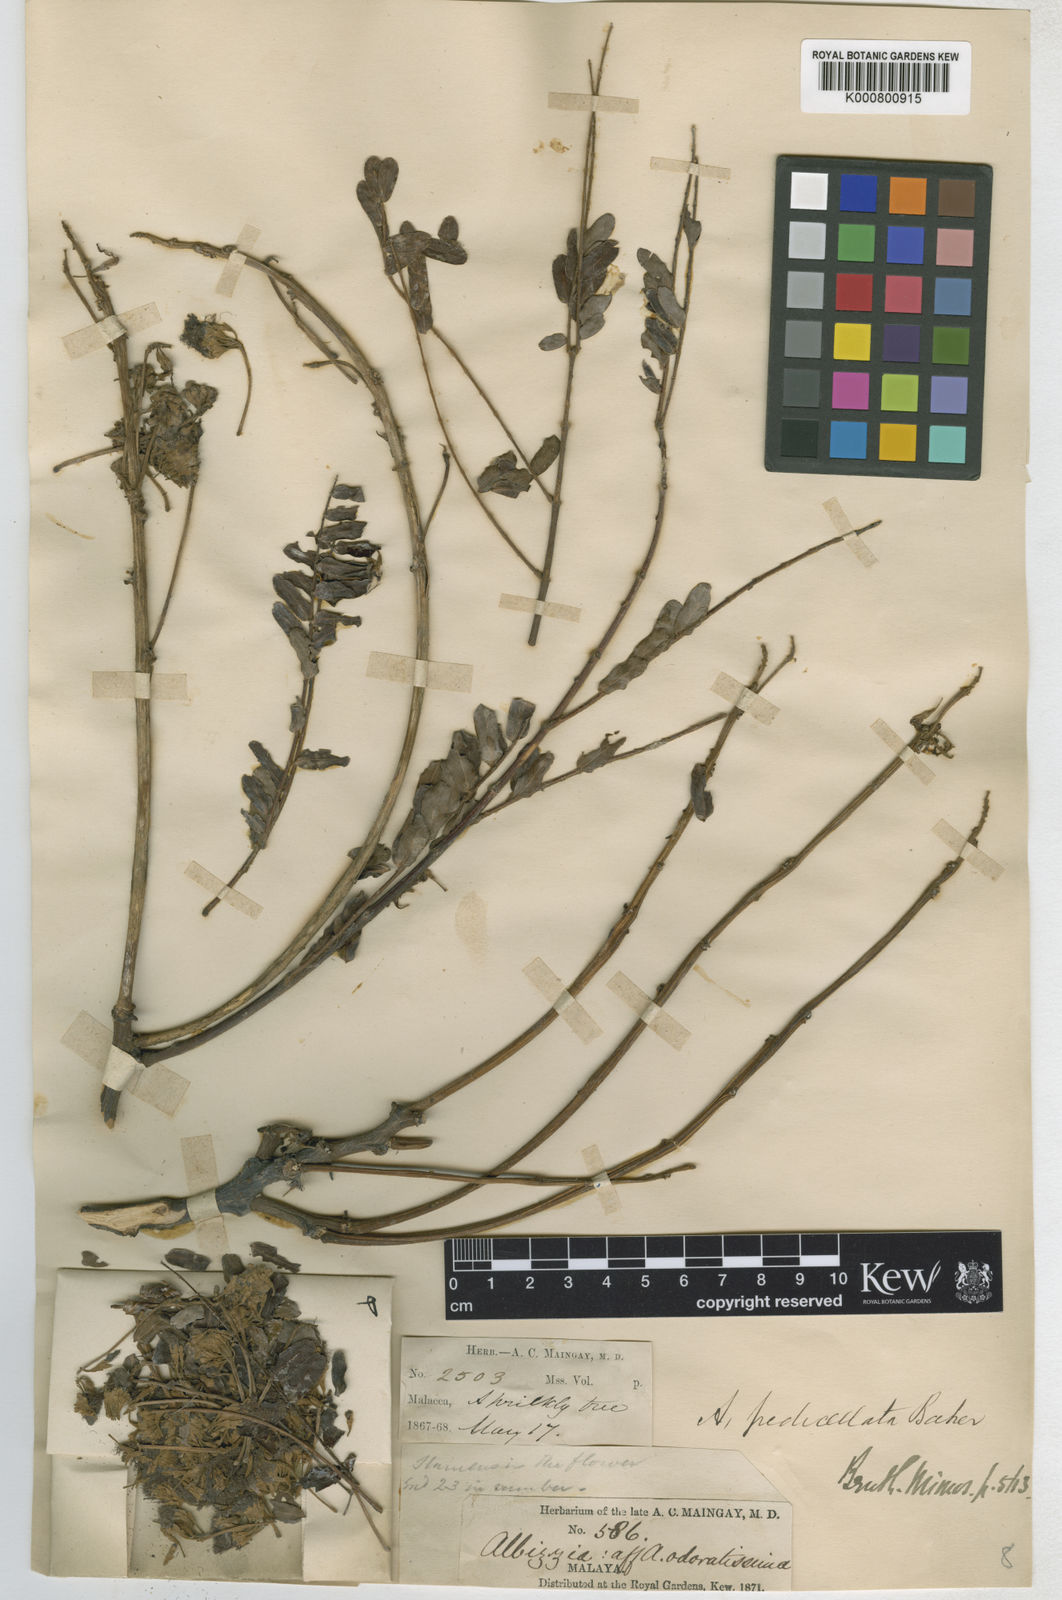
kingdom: Plantae
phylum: Tracheophyta
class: Magnoliopsida
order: Fabales
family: Fabaceae
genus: Albizia
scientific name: Albizia pedicellata
